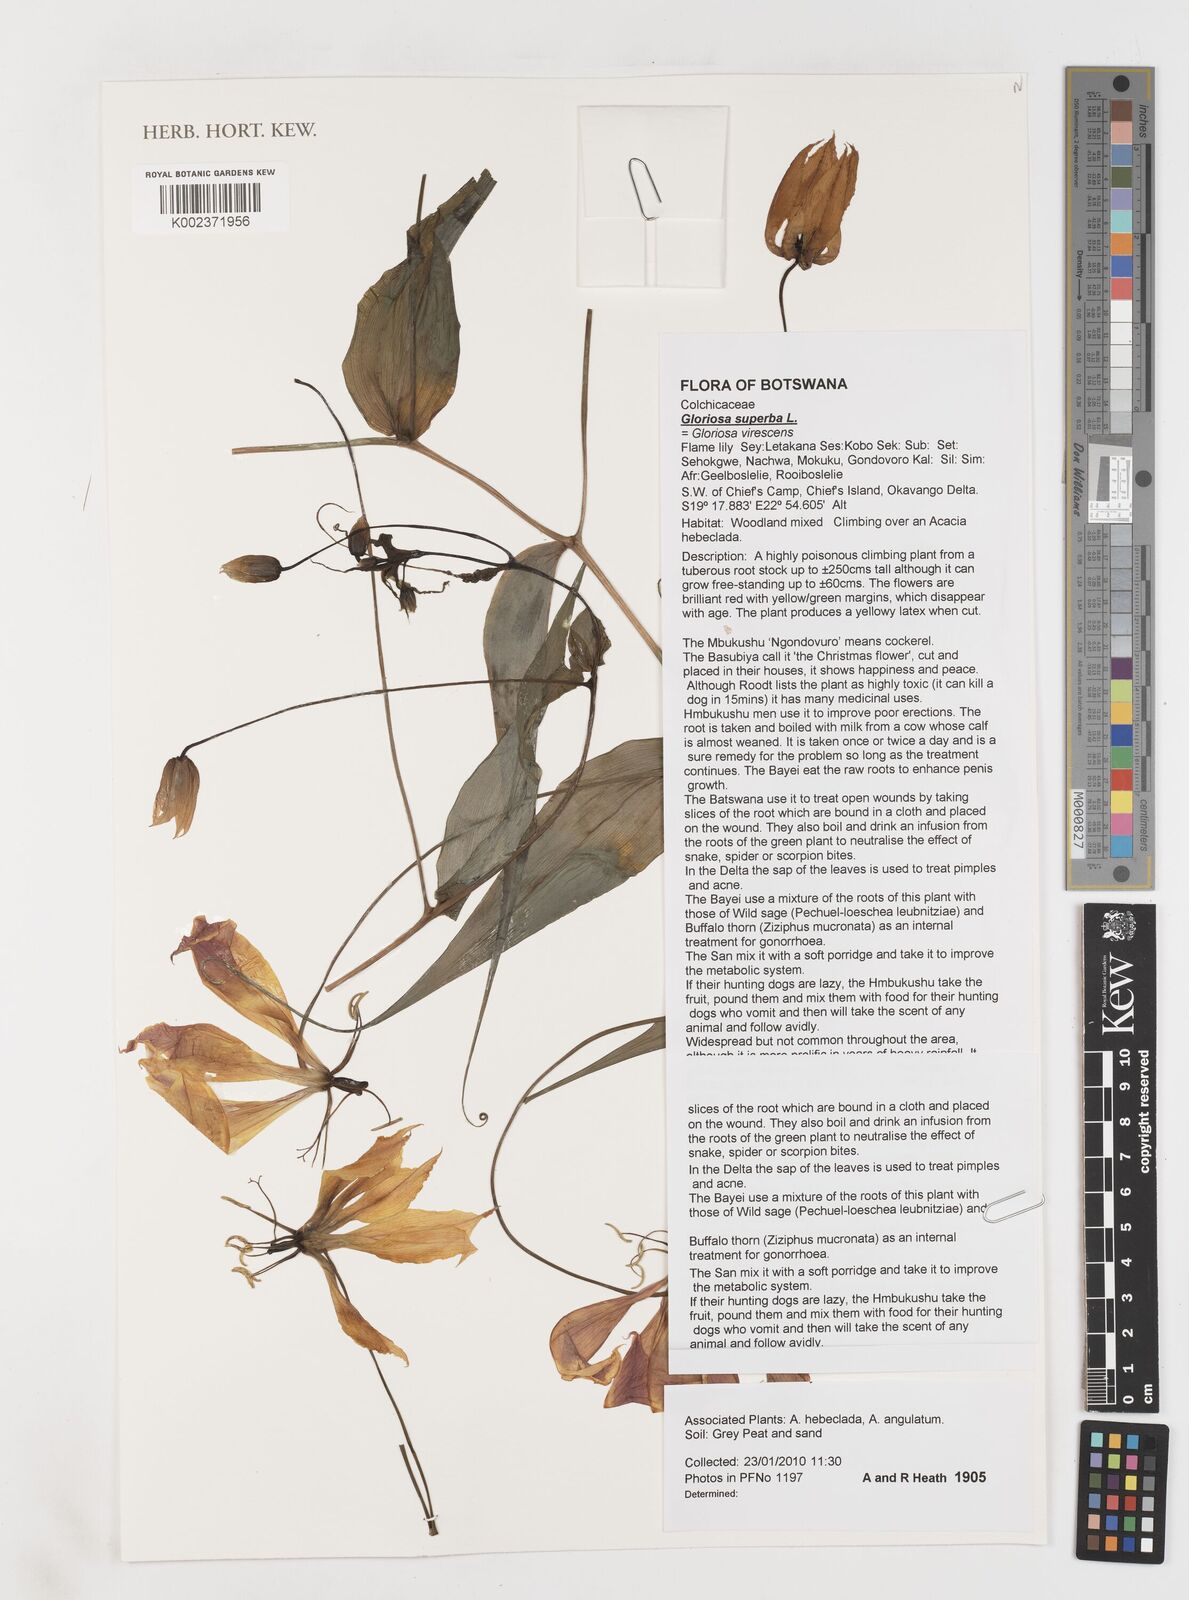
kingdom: Plantae
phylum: Tracheophyta
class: Liliopsida
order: Liliales
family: Colchicaceae
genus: Gloriosa
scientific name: Gloriosa simplex
